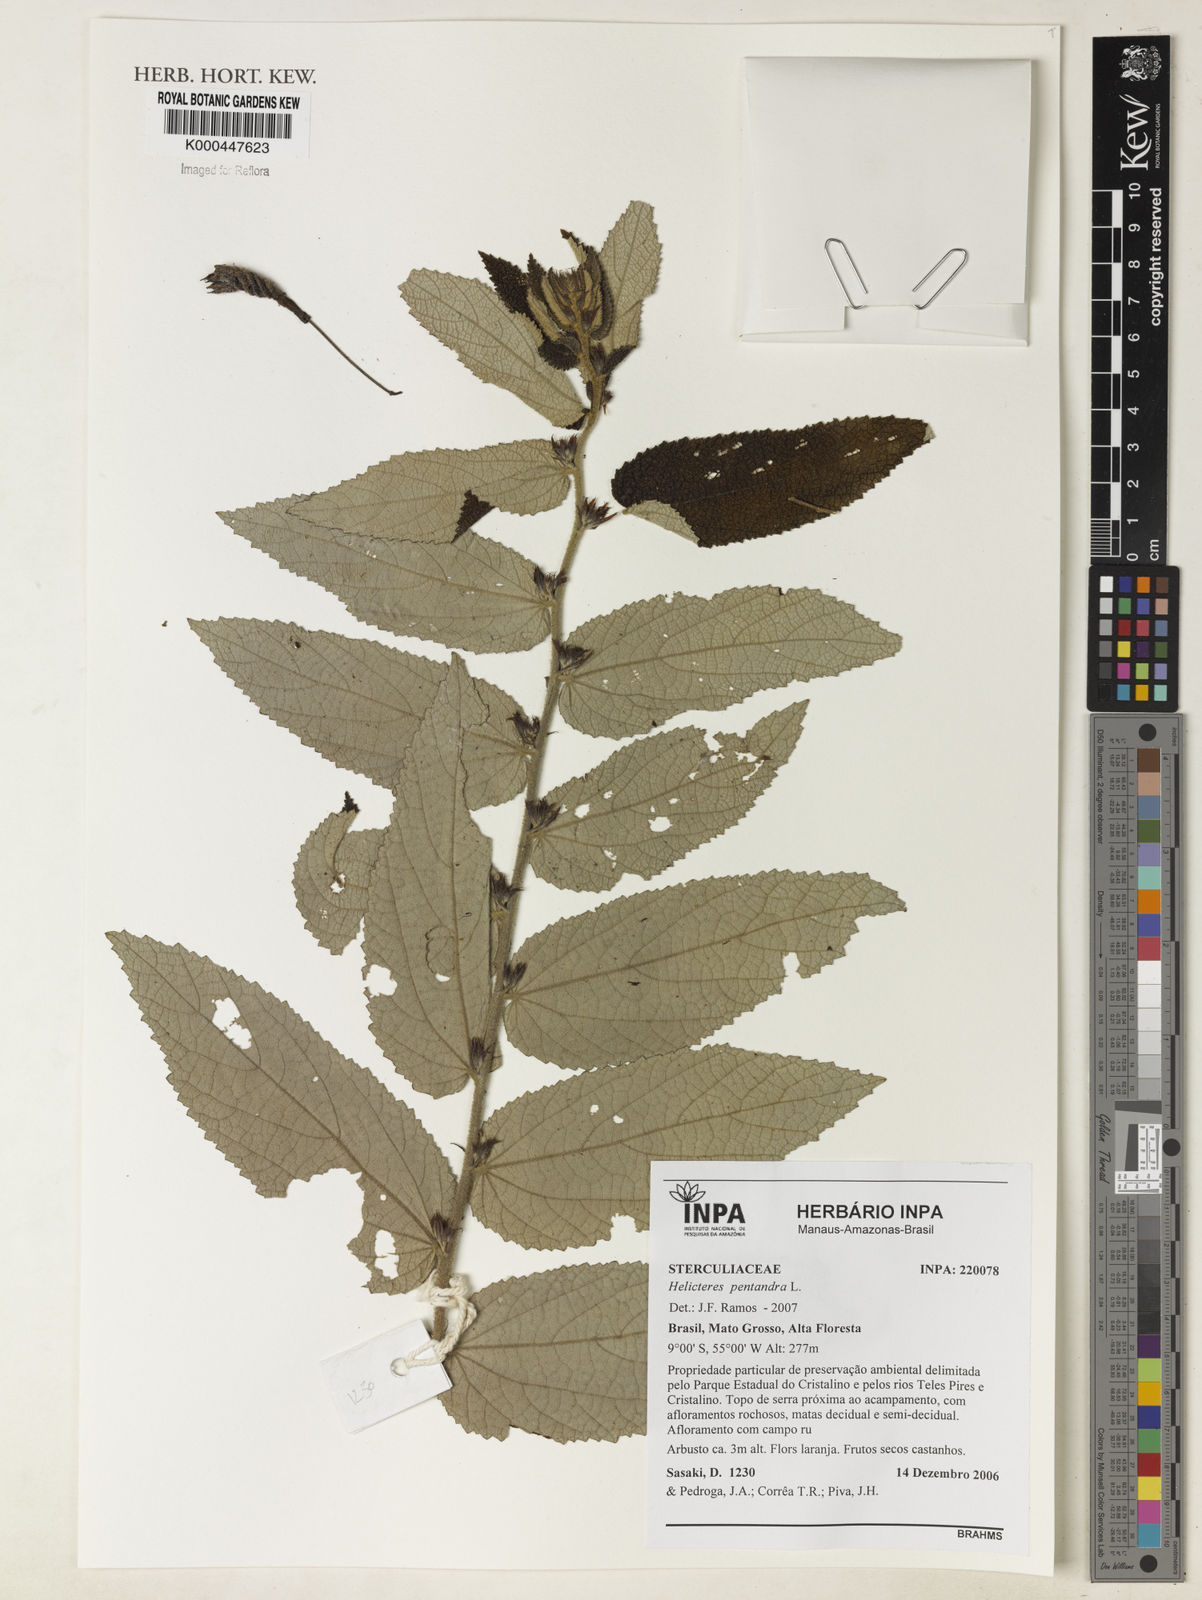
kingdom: Plantae
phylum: Tracheophyta
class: Magnoliopsida
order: Malvales
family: Malvaceae
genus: Helicteres
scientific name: Helicteres pentandra
